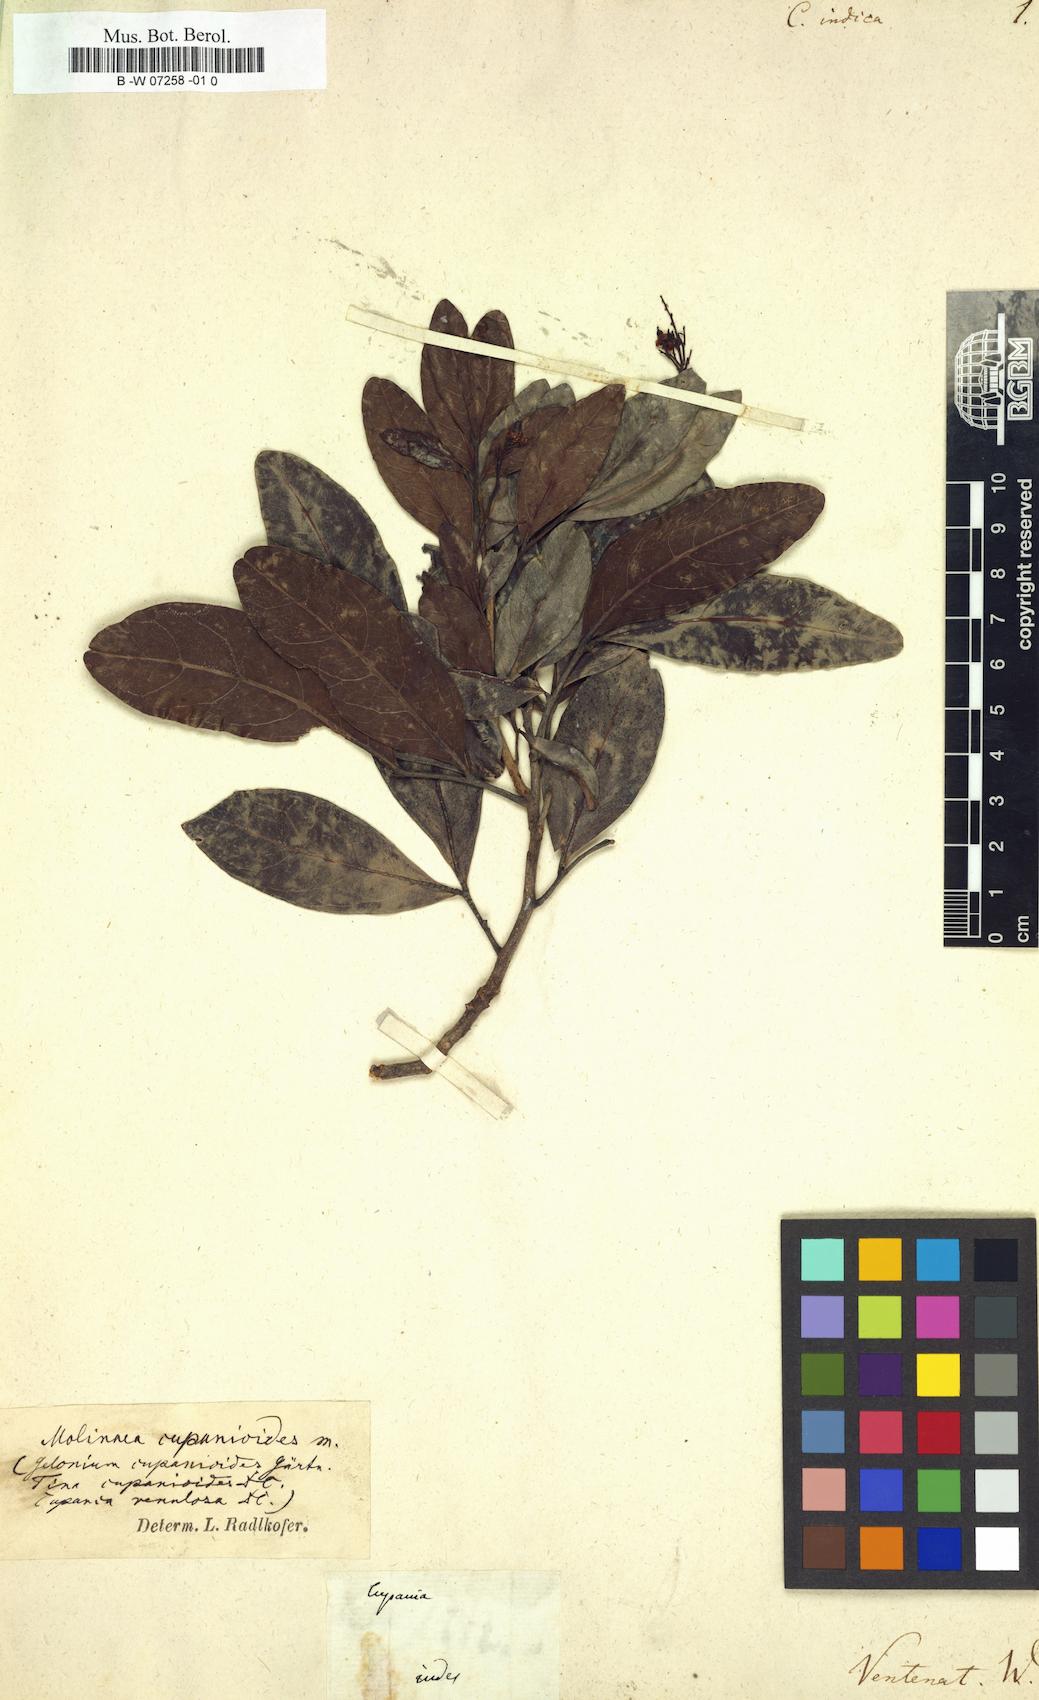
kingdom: Plantae
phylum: Tracheophyta
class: Magnoliopsida
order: Sapindales
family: Sapindaceae
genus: Cupania
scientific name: Cupania
